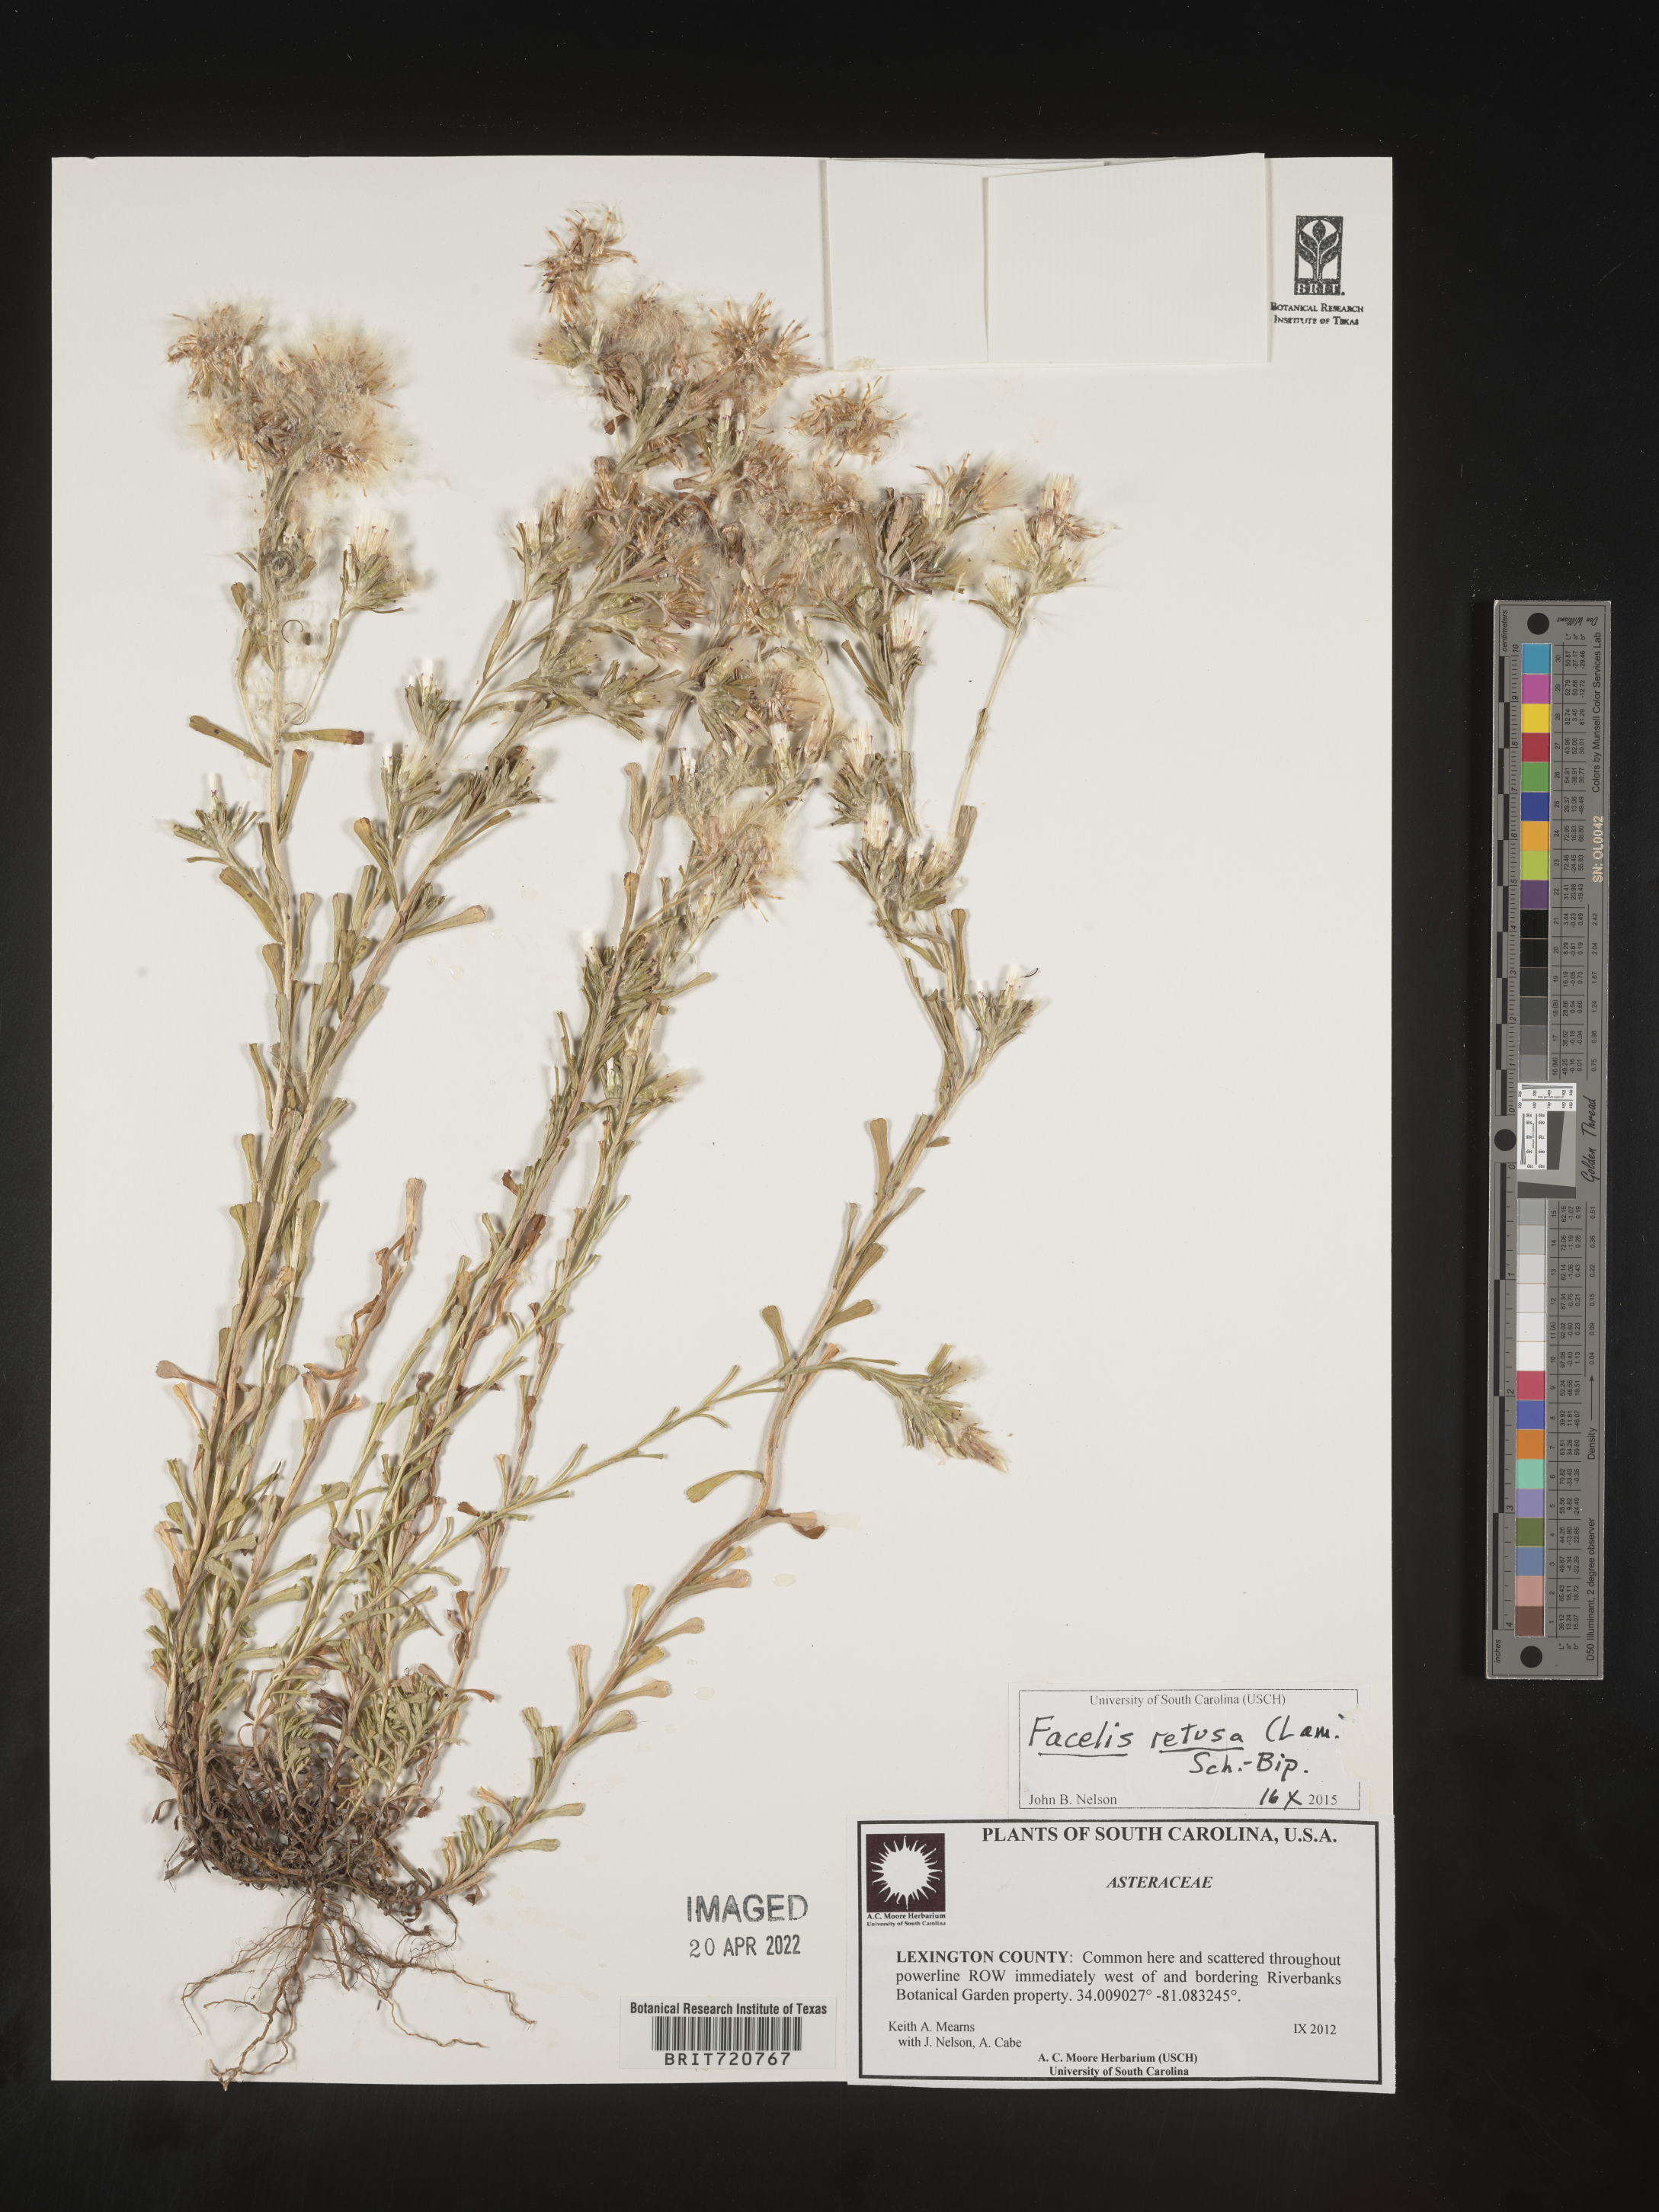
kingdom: Plantae
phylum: Tracheophyta
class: Magnoliopsida
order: Asterales
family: Asteraceae
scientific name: Asteraceae
